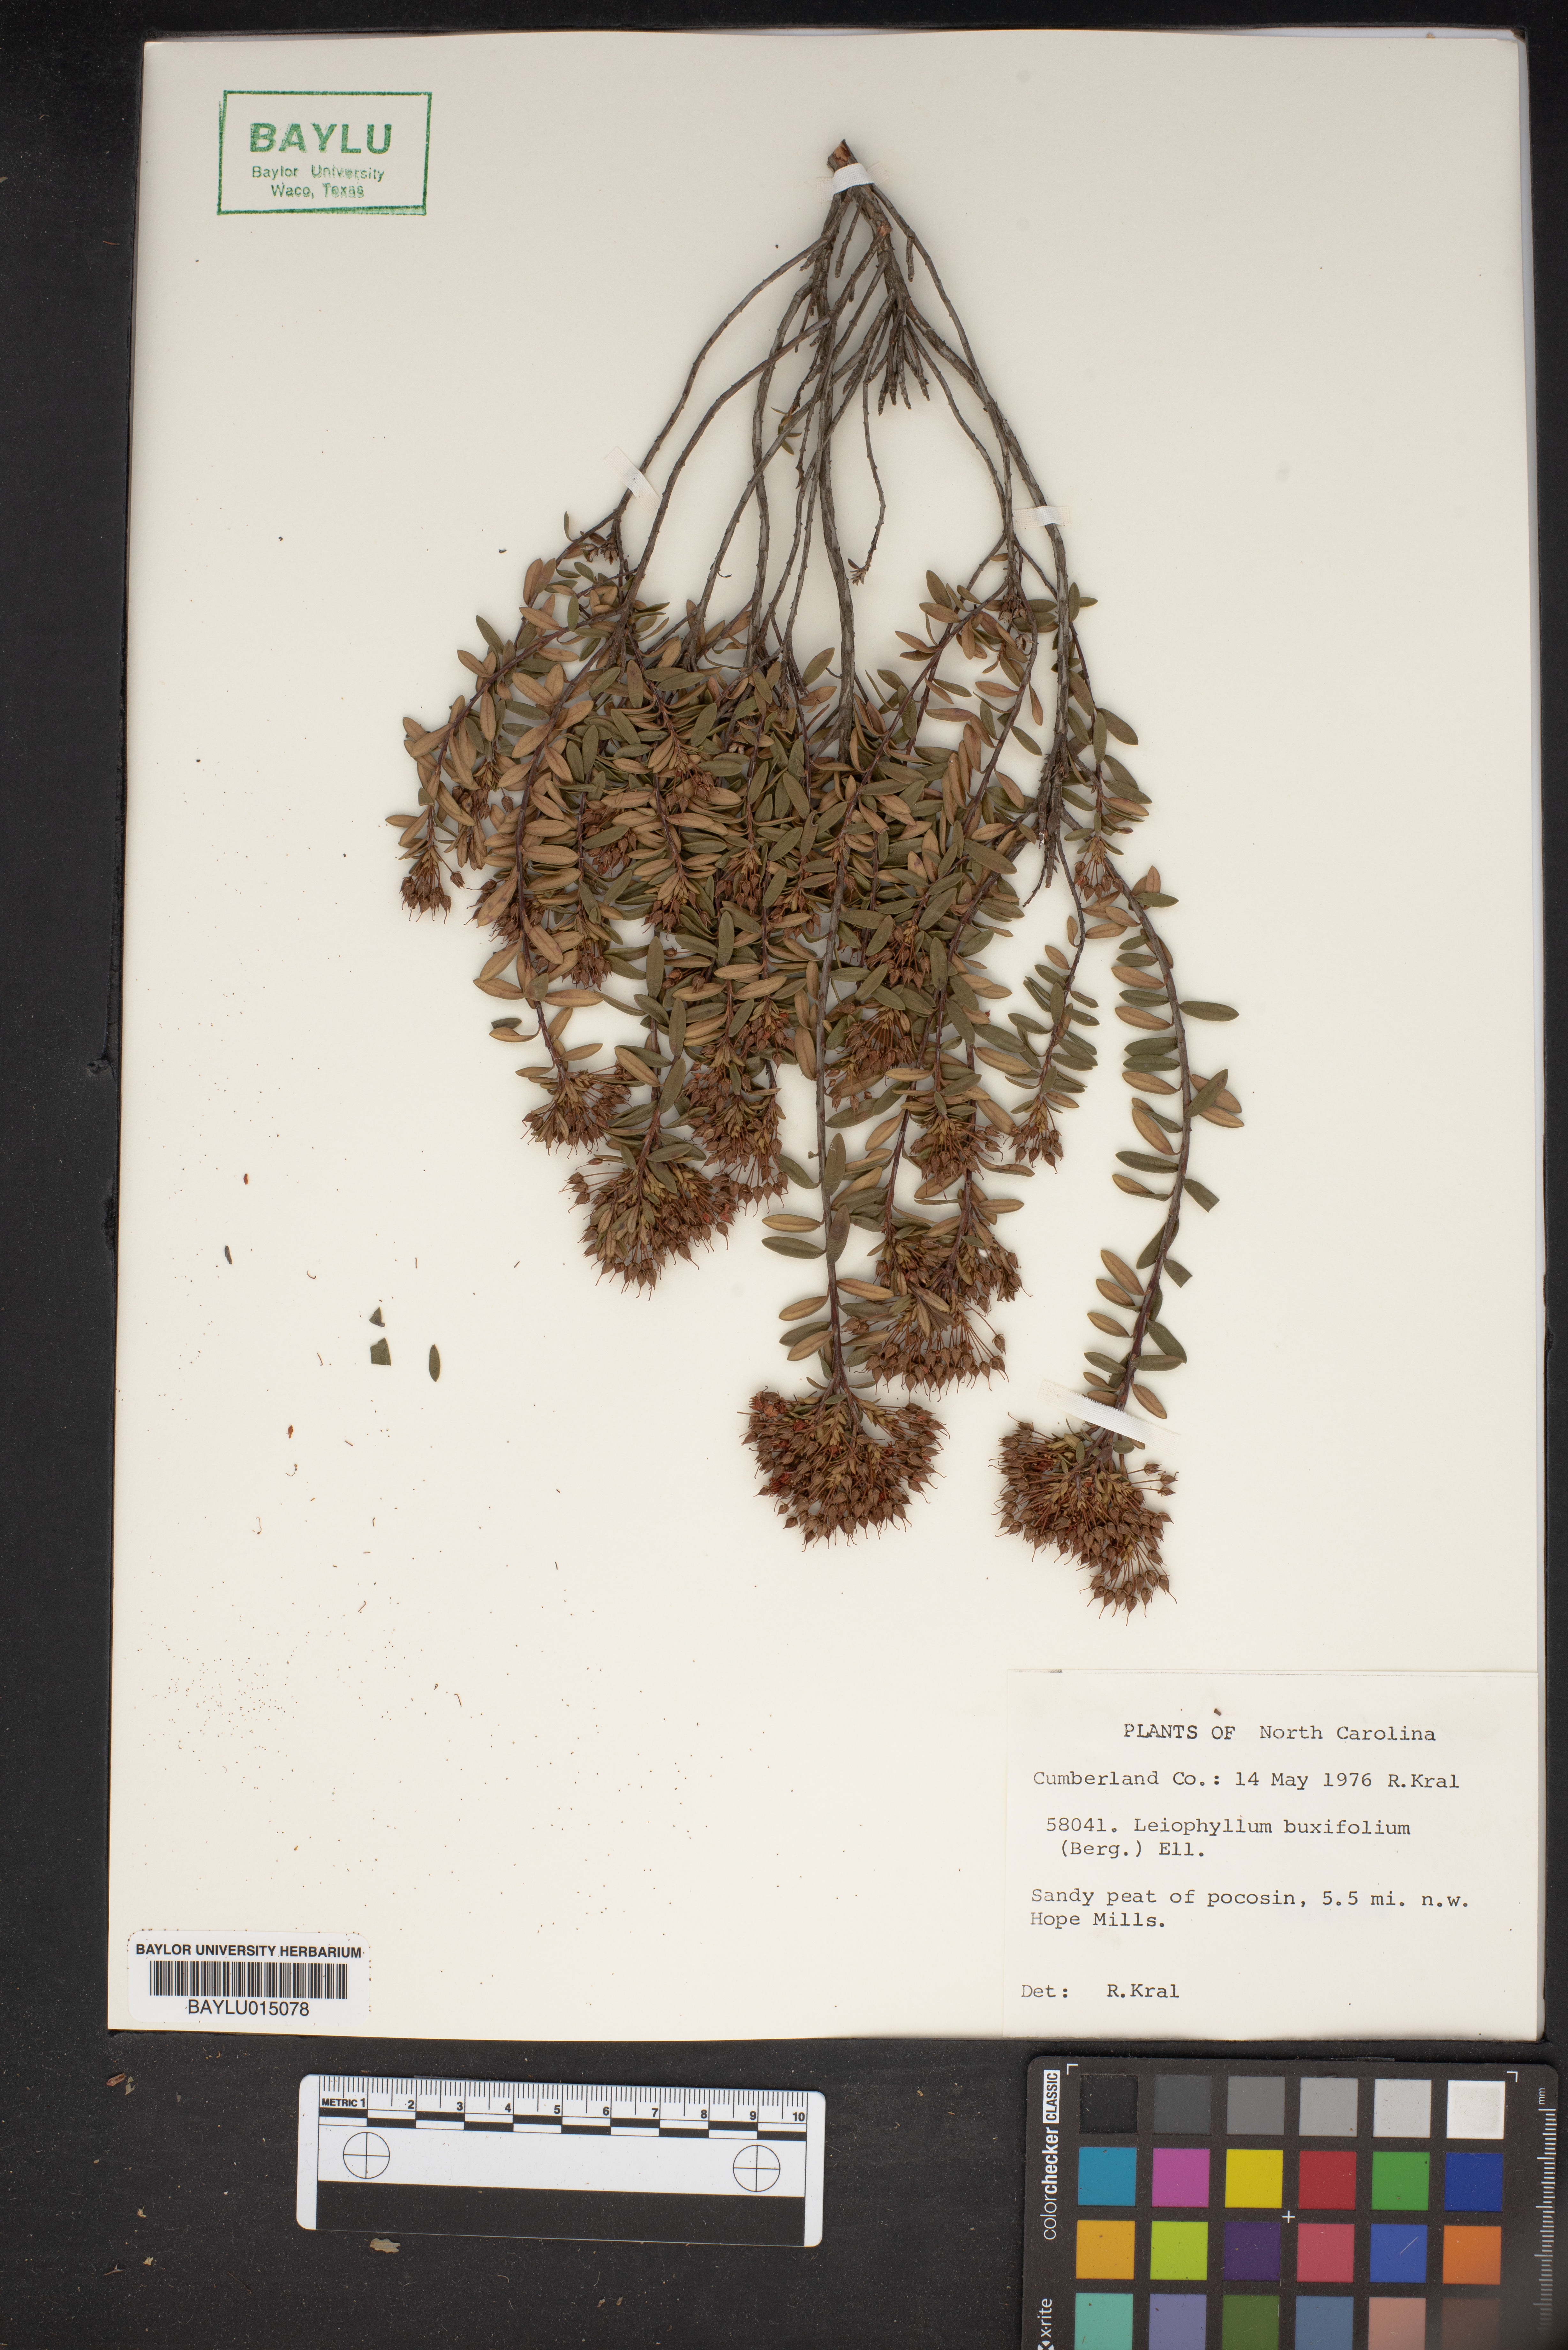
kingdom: Plantae
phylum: Tracheophyta
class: Magnoliopsida
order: Ericales
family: Ericaceae
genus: Kalmia
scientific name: Kalmia buxifolia
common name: Sandmyrtle
